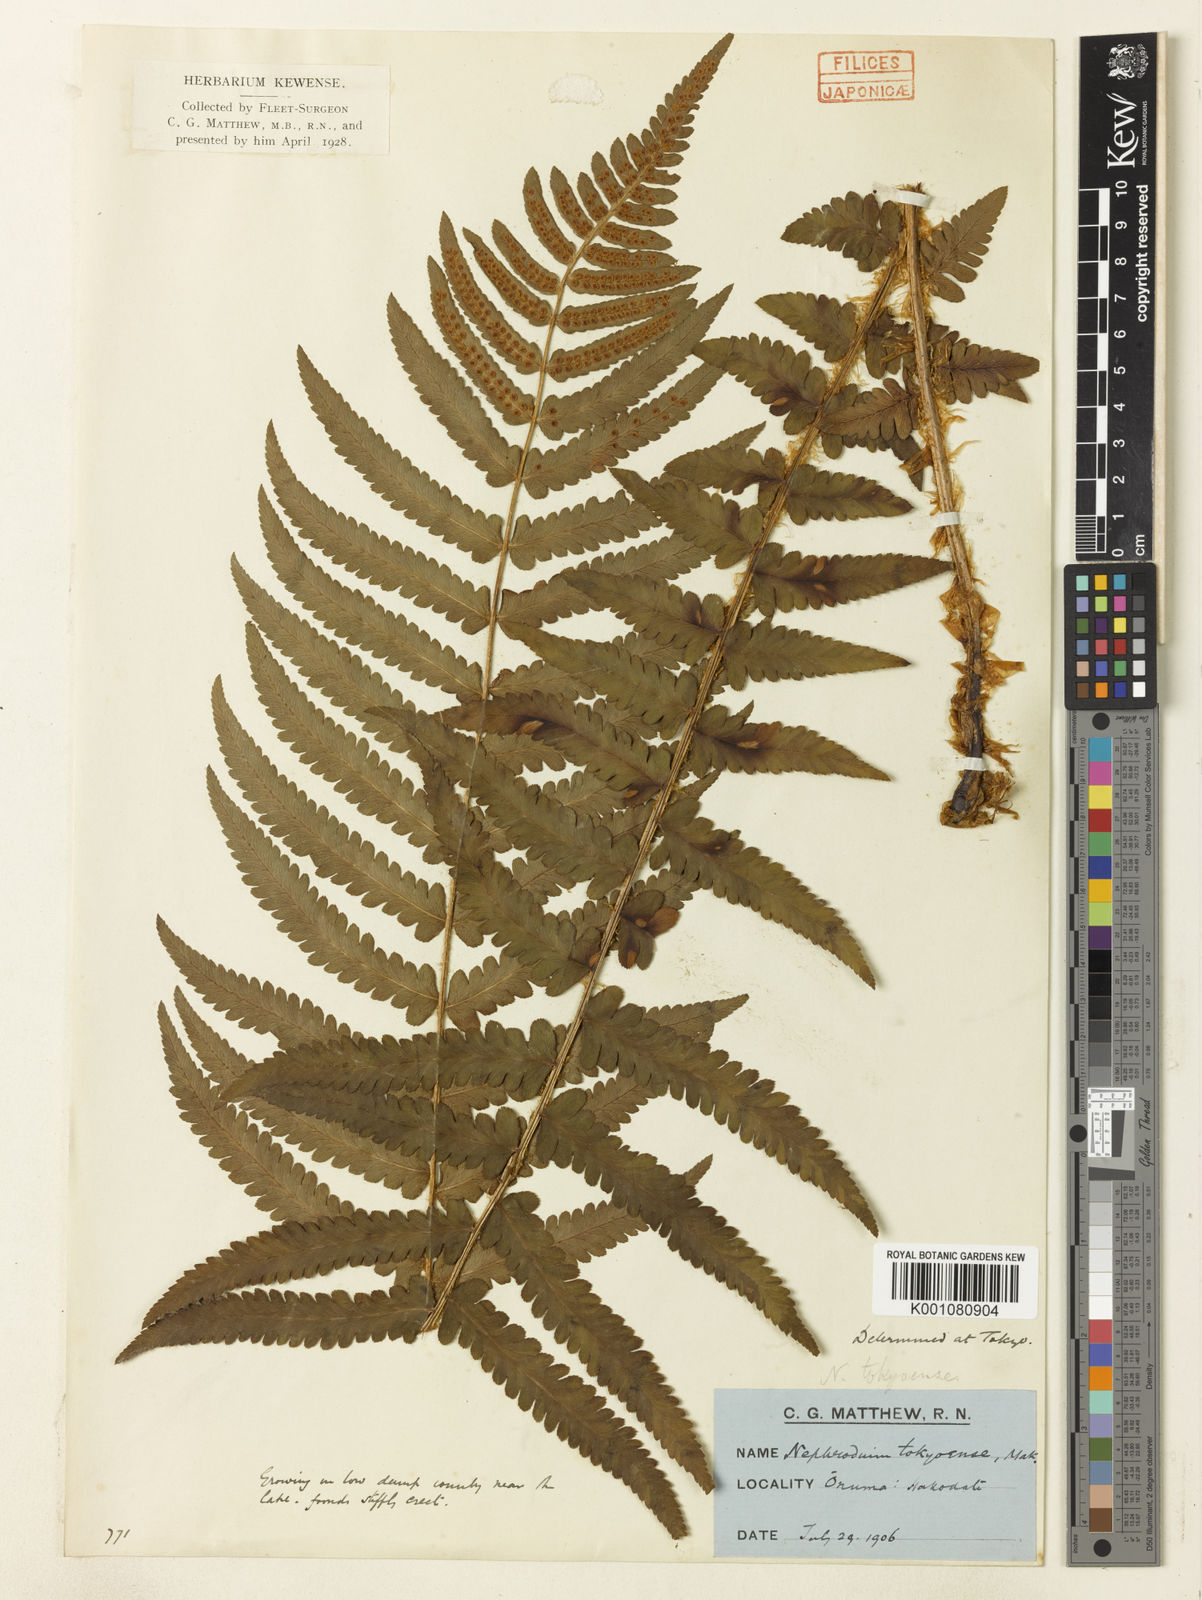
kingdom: Plantae
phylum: Tracheophyta
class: Polypodiopsida
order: Polypodiales
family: Dryopteridaceae
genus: Dryopteris
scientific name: Dryopteris tokyoensis
